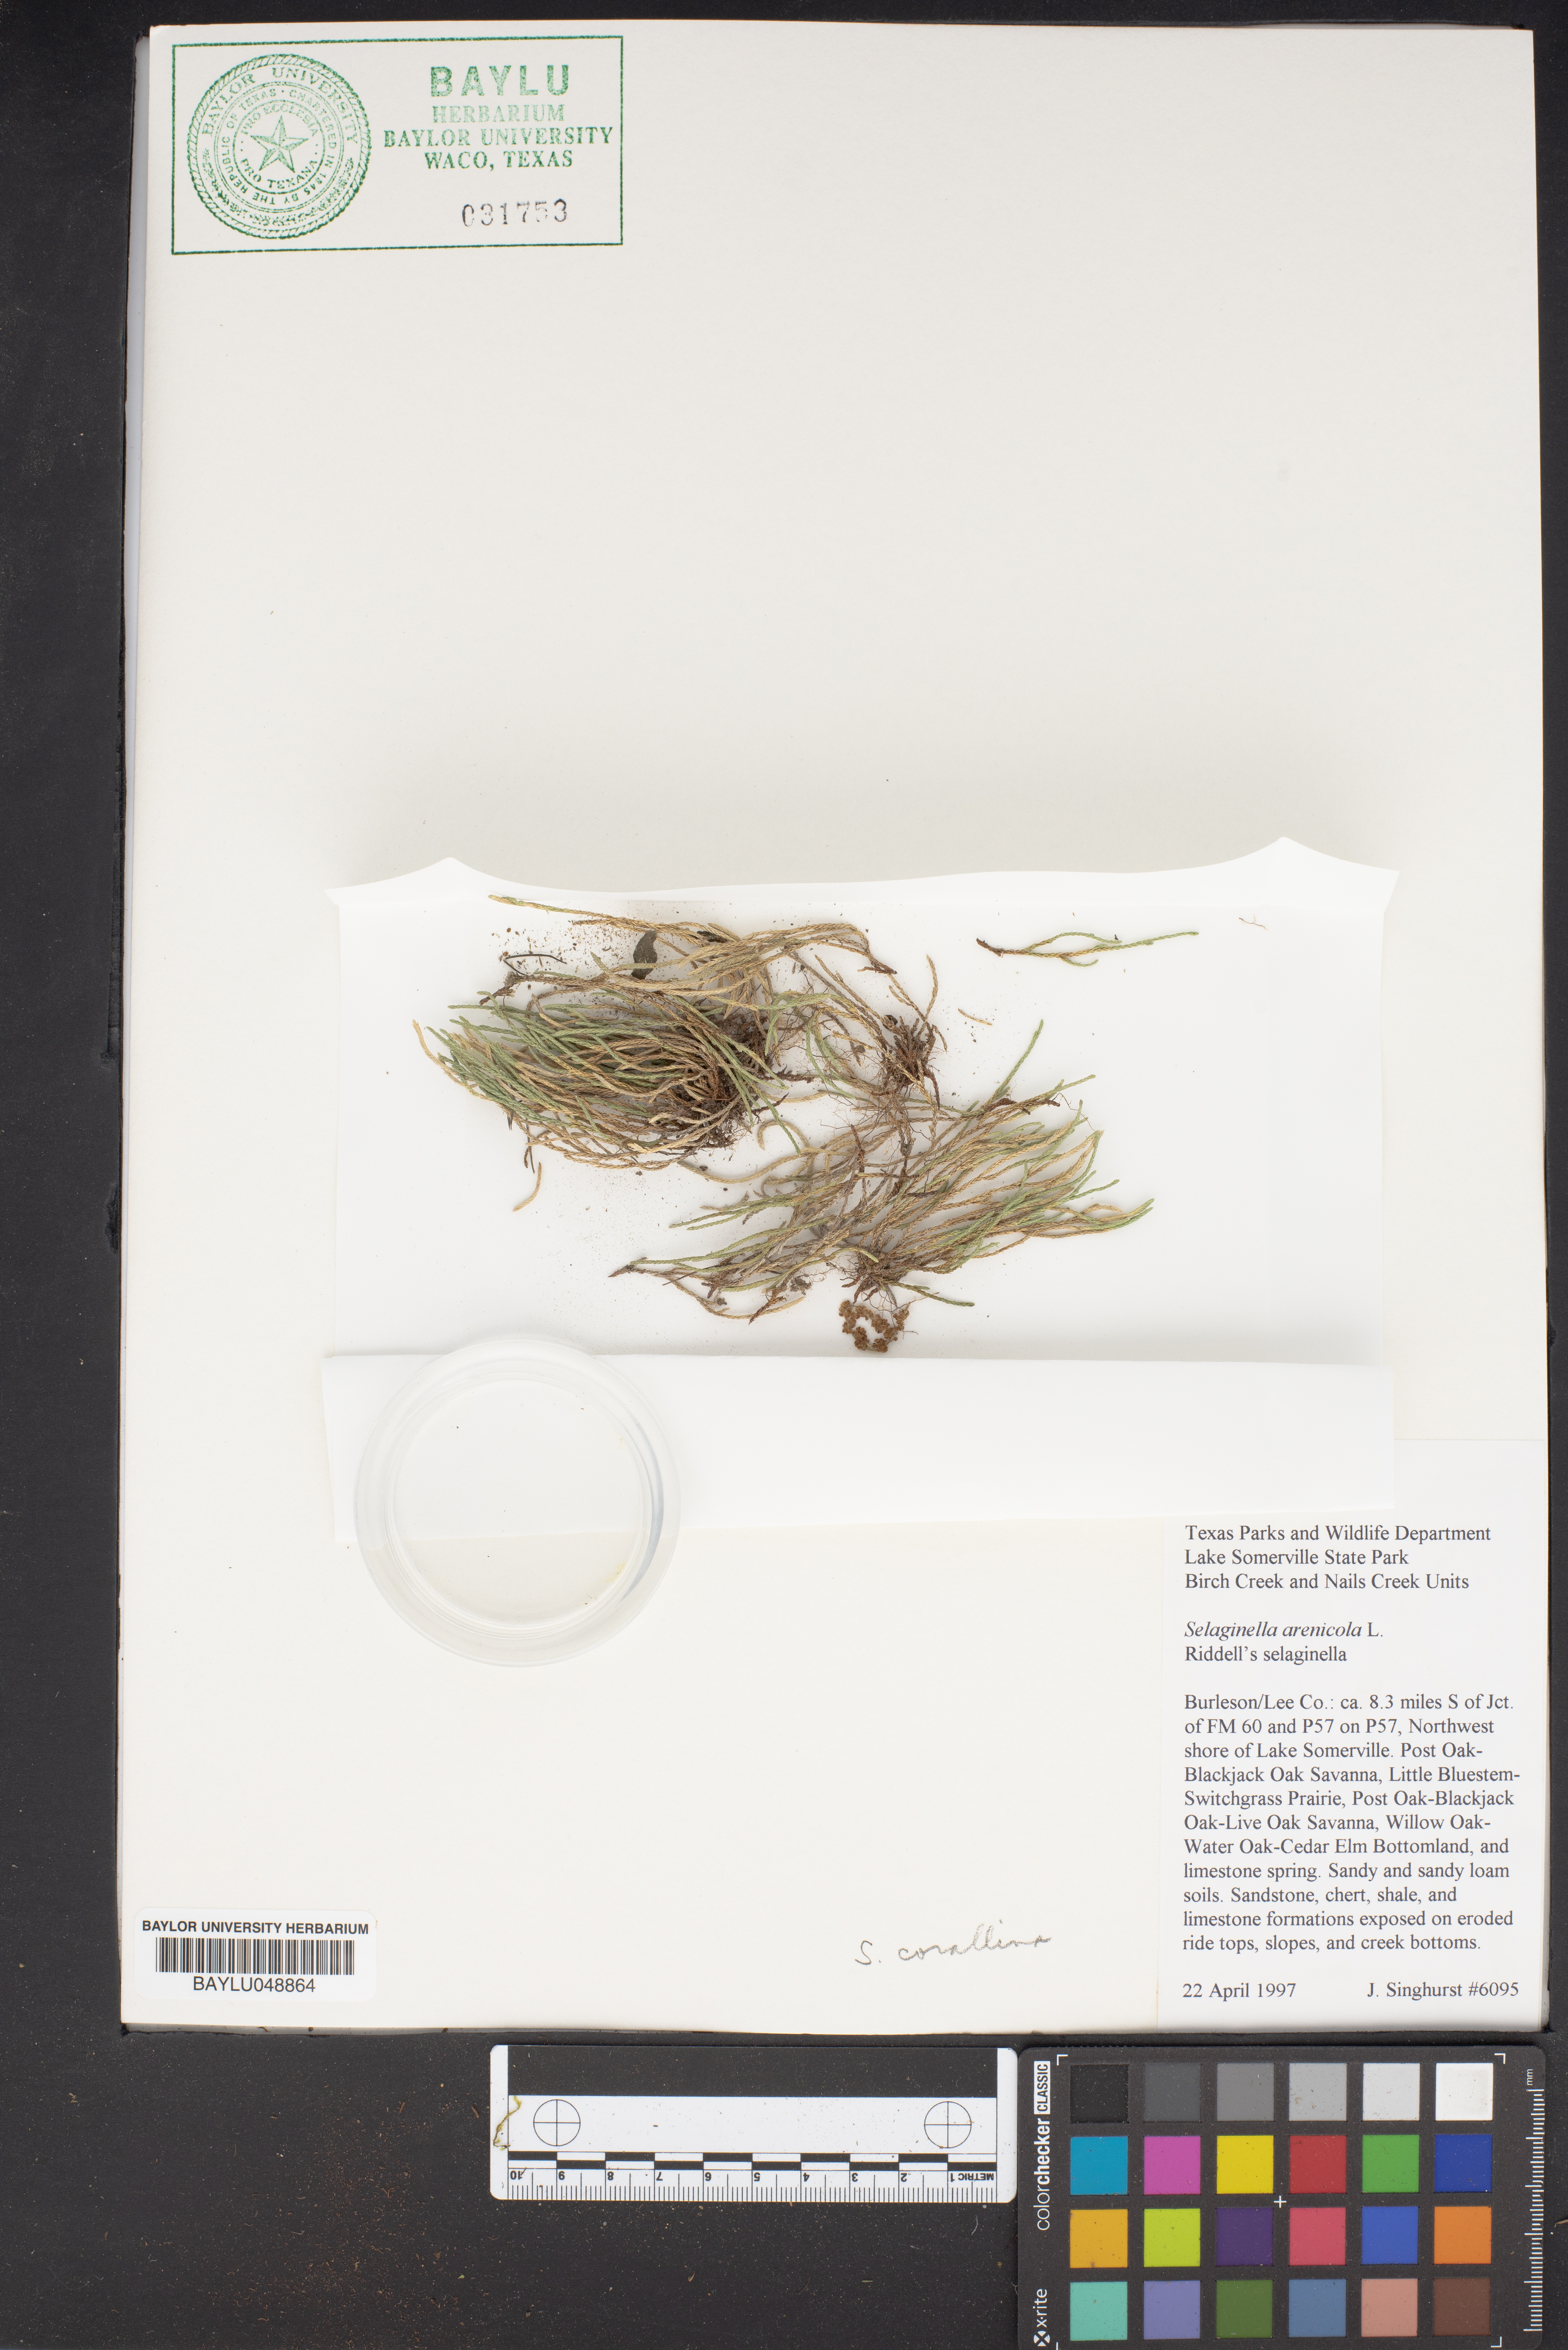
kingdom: Plantae
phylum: Tracheophyta
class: Lycopodiopsida
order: Selaginellales
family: Selaginellaceae
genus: Selaginella
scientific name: Selaginella arenicola
